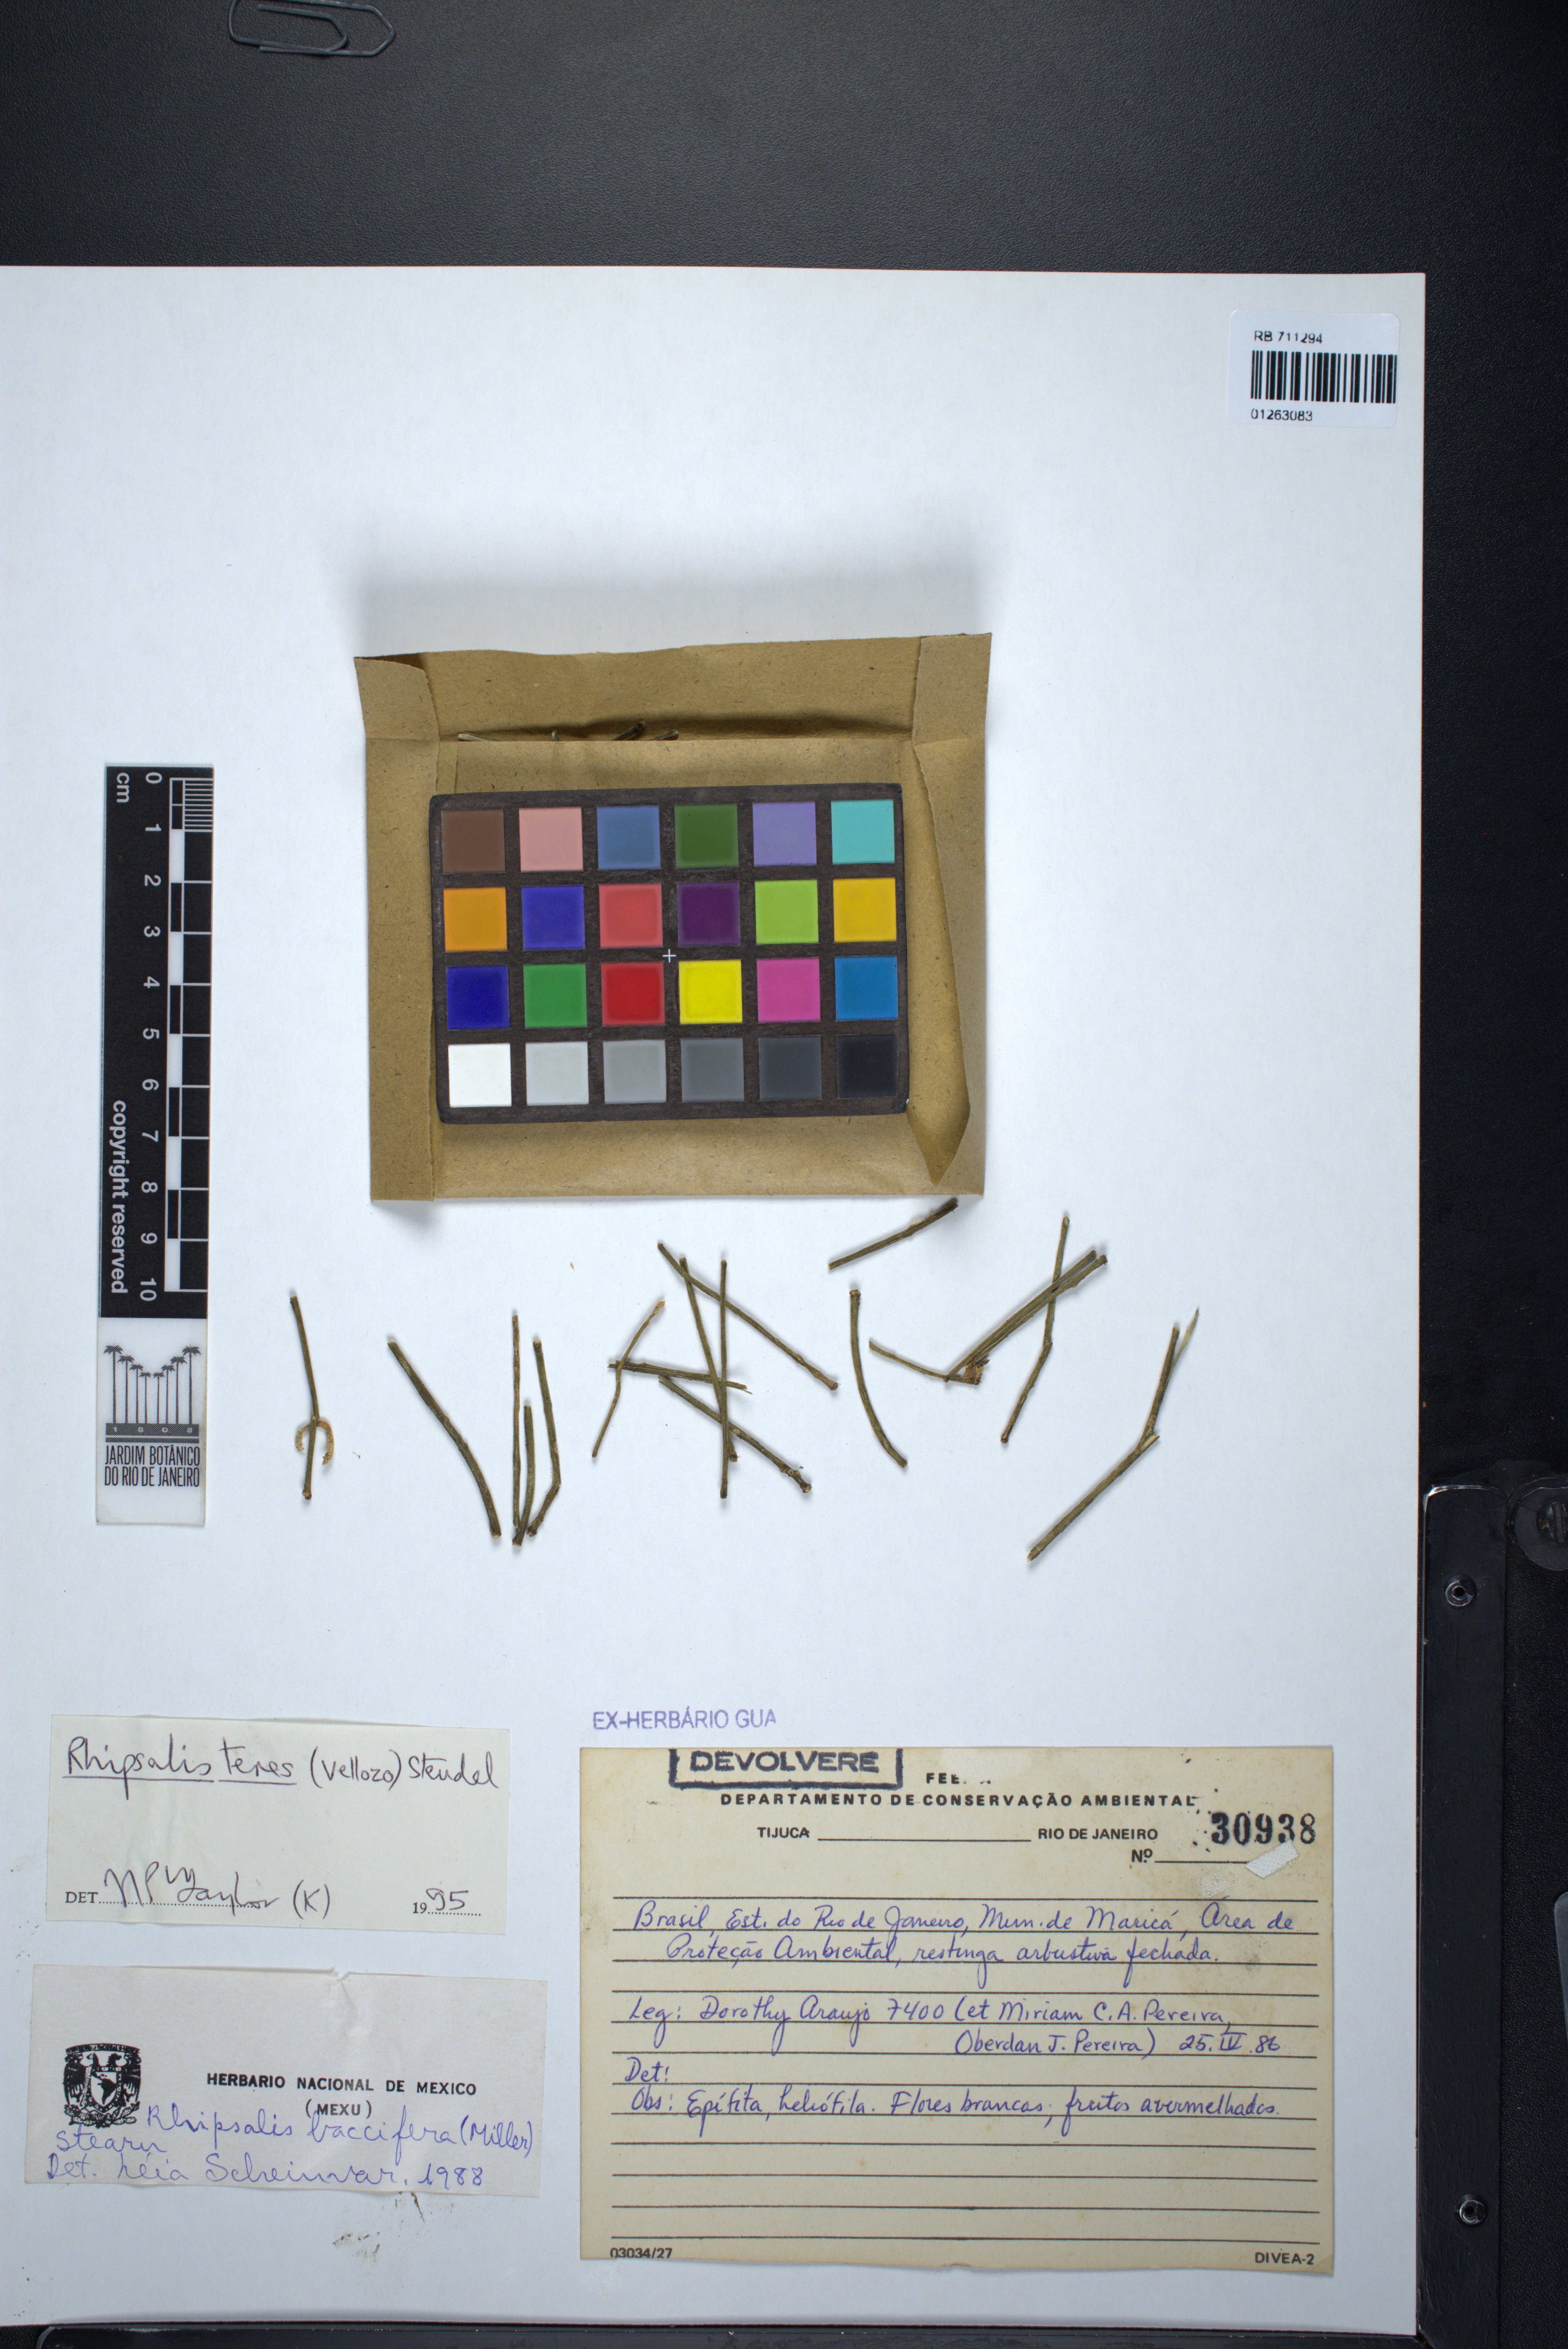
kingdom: Plantae
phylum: Tracheophyta
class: Magnoliopsida
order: Caryophyllales
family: Cactaceae
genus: Rhipsalis
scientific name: Rhipsalis teres
